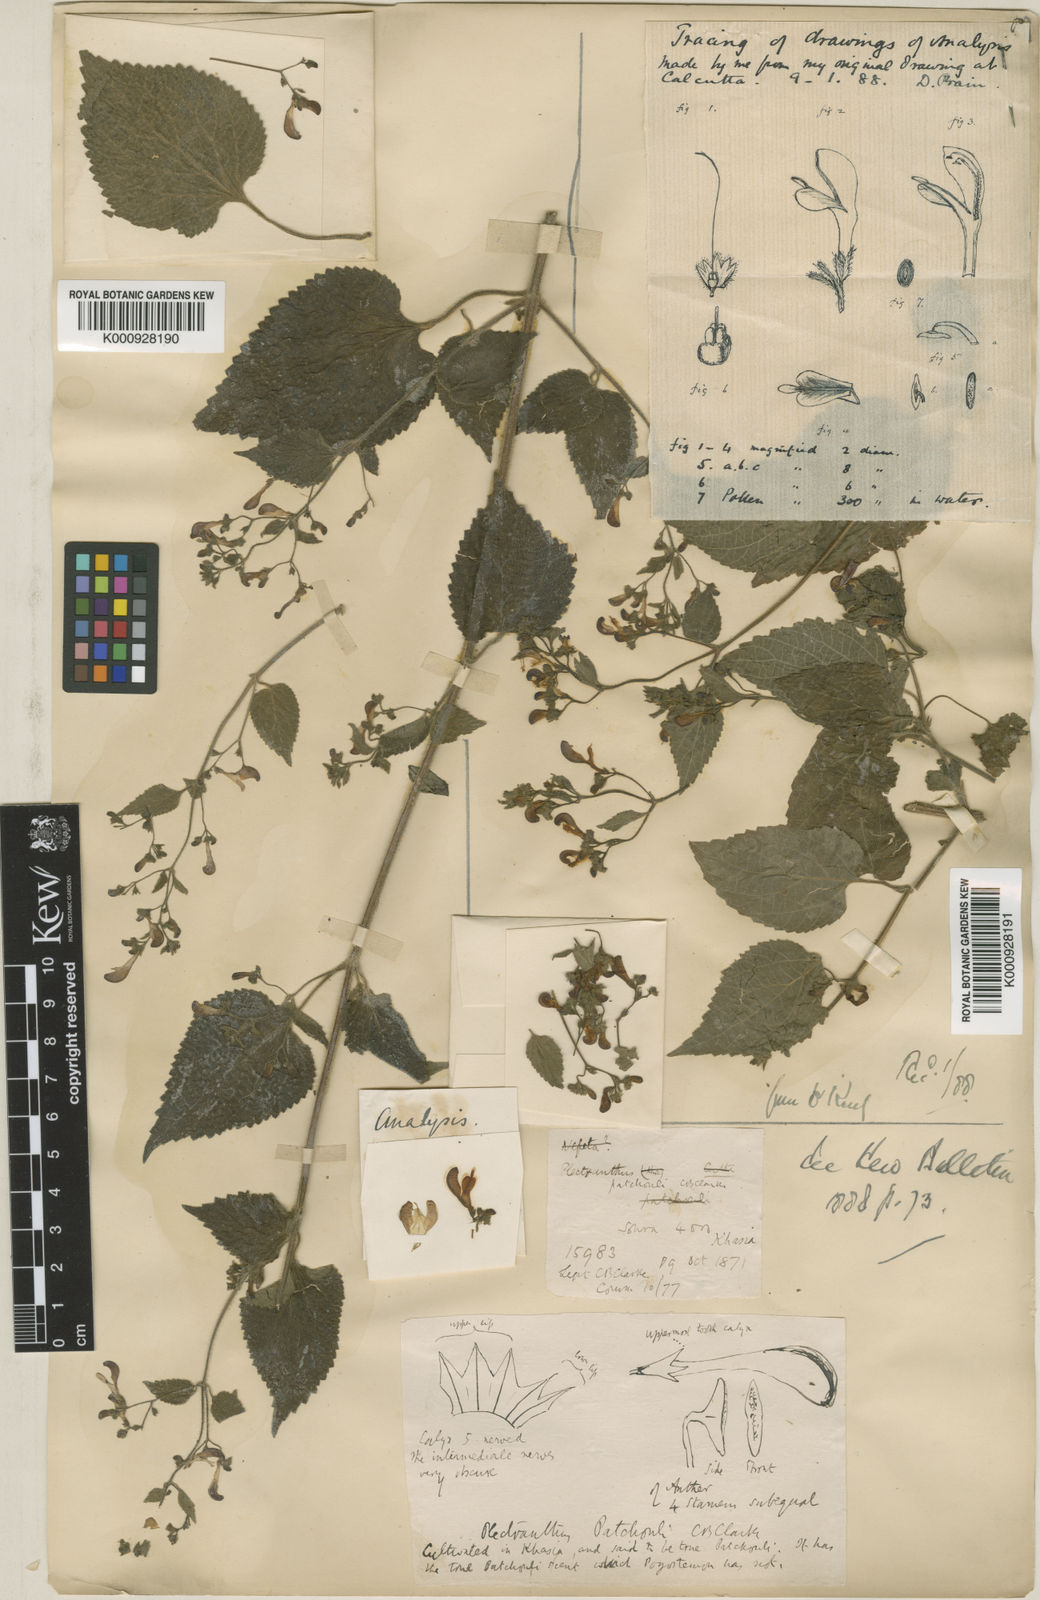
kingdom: Plantae
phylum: Tracheophyta
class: Magnoliopsida
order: Lamiales
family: Lamiaceae
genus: Microtoena
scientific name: Microtoena patchoulii
